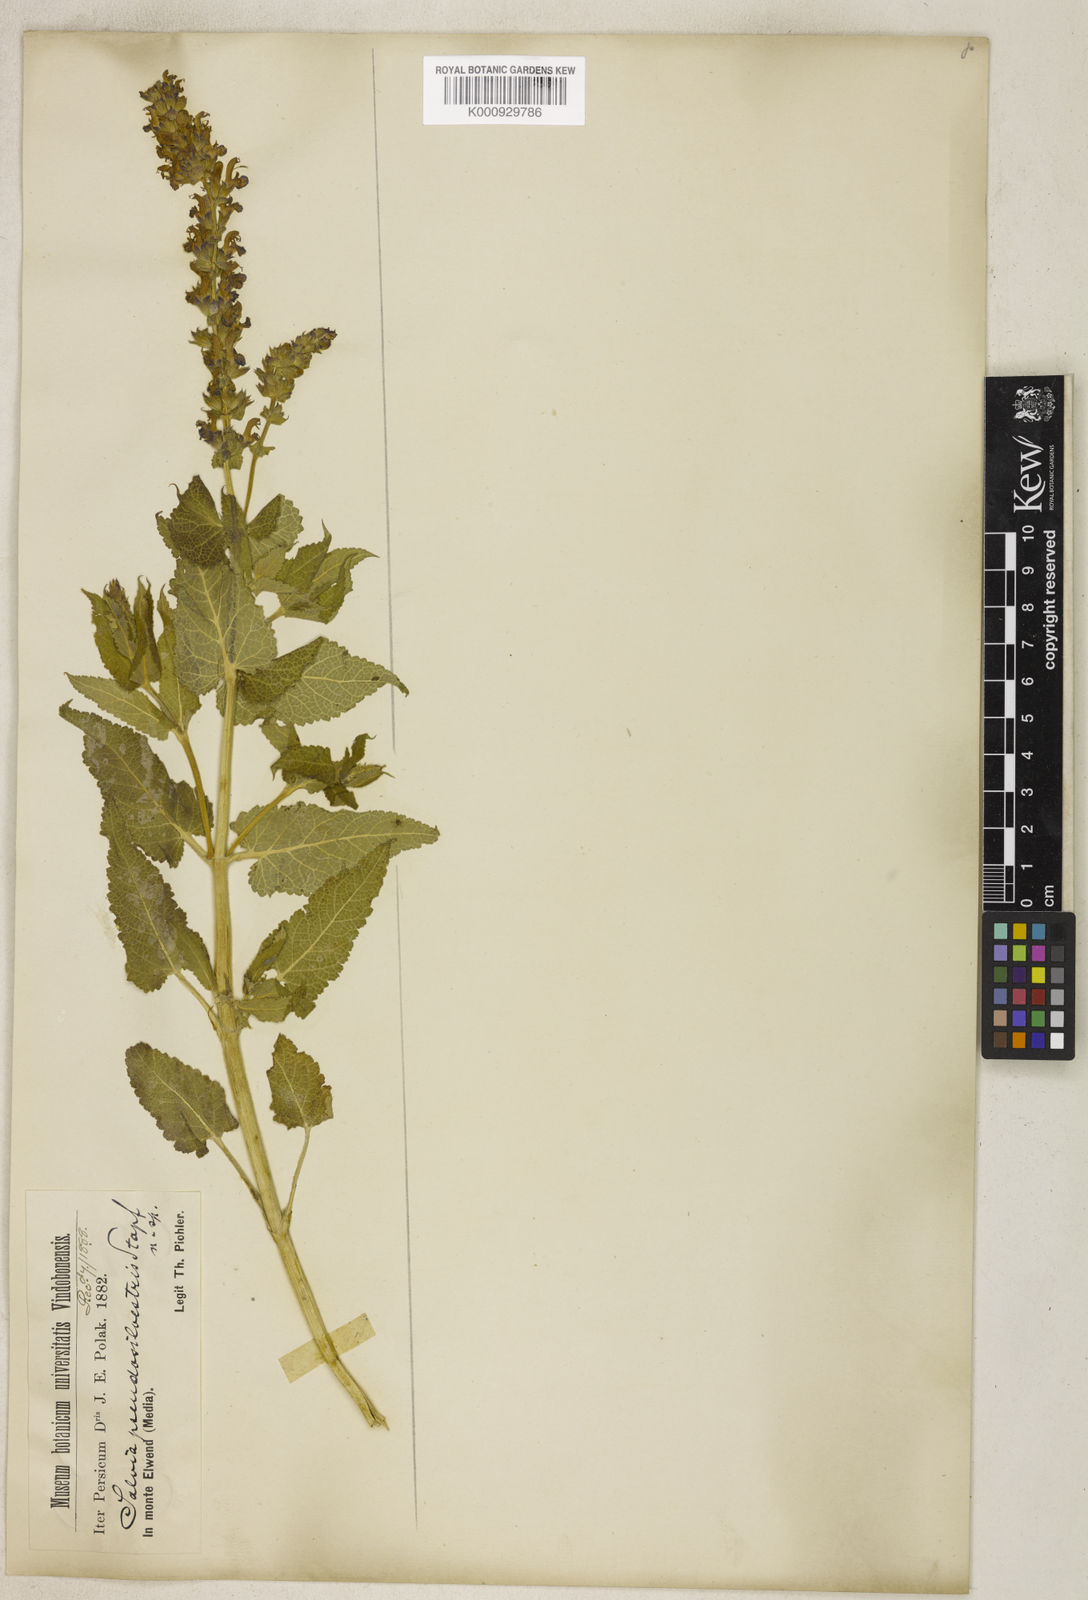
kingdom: Plantae
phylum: Tracheophyta
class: Magnoliopsida
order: Lamiales
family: Lamiaceae
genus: Salvia
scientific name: Salvia nemorosa
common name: Balkan clary
